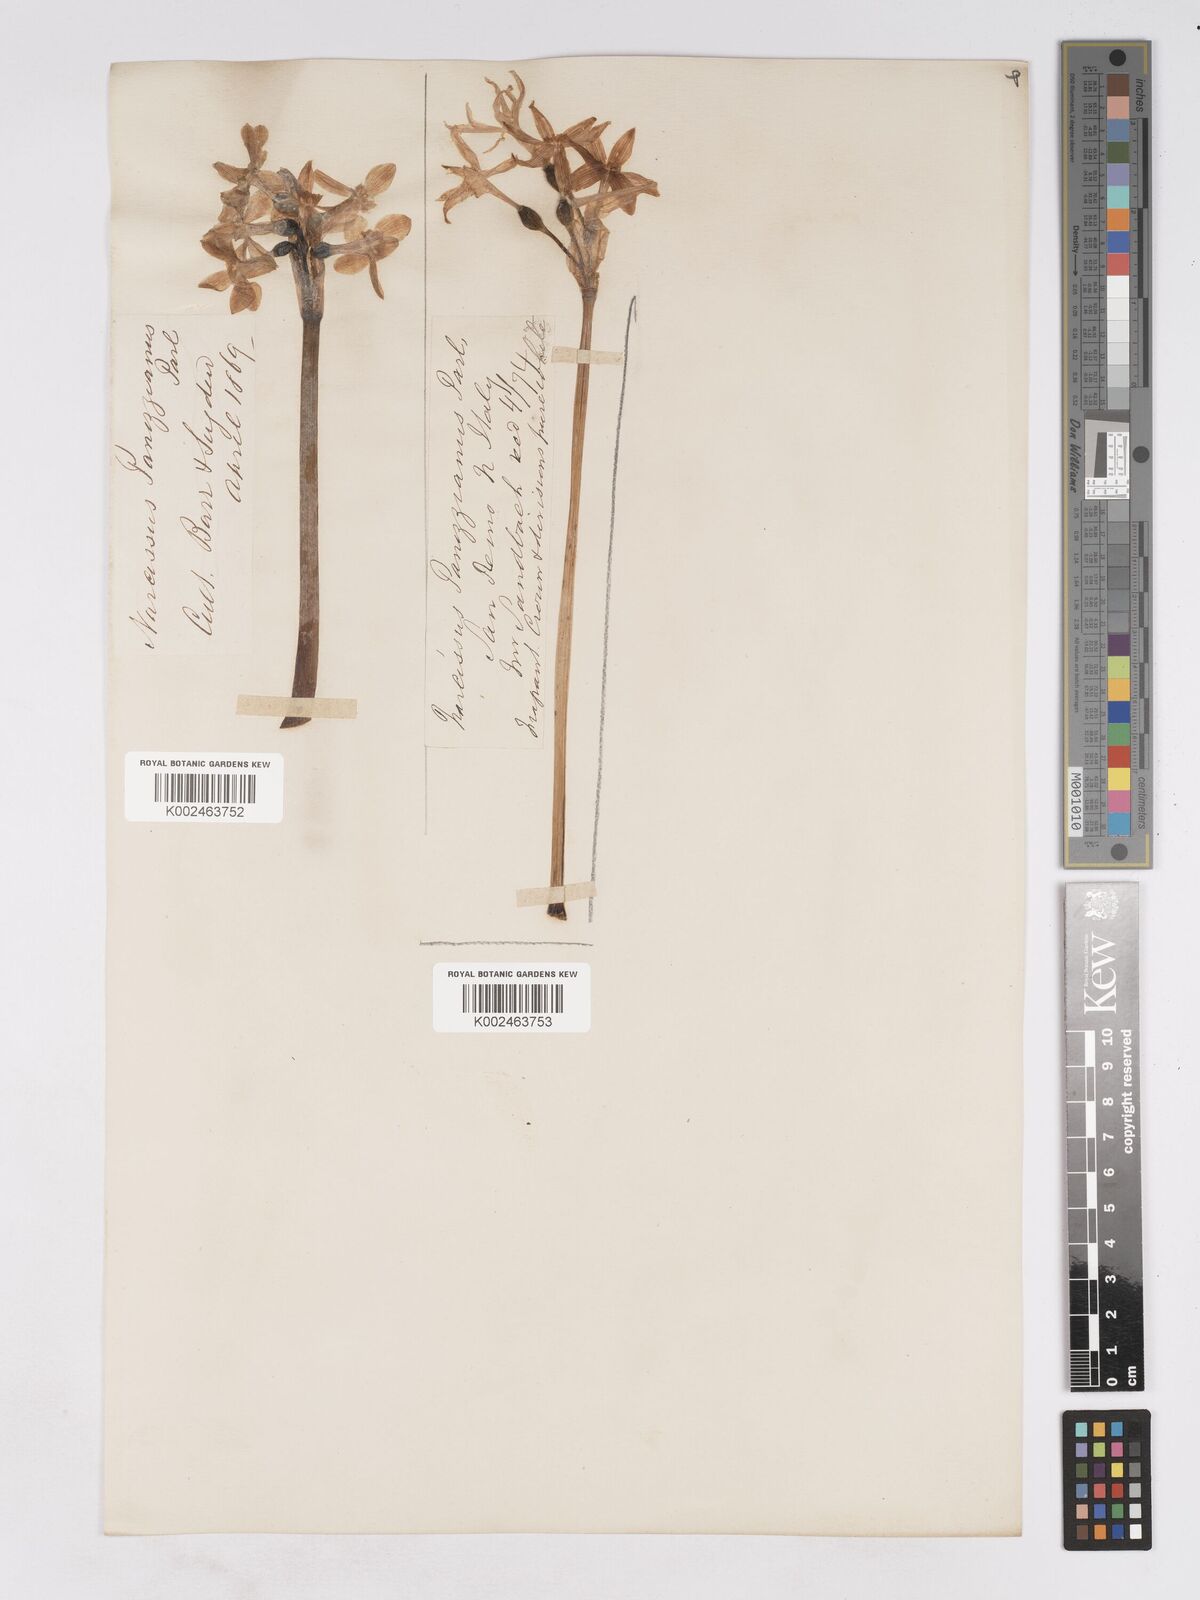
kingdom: Plantae
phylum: Tracheophyta
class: Liliopsida
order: Asparagales
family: Amaryllidaceae
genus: Narcissus
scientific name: Narcissus
